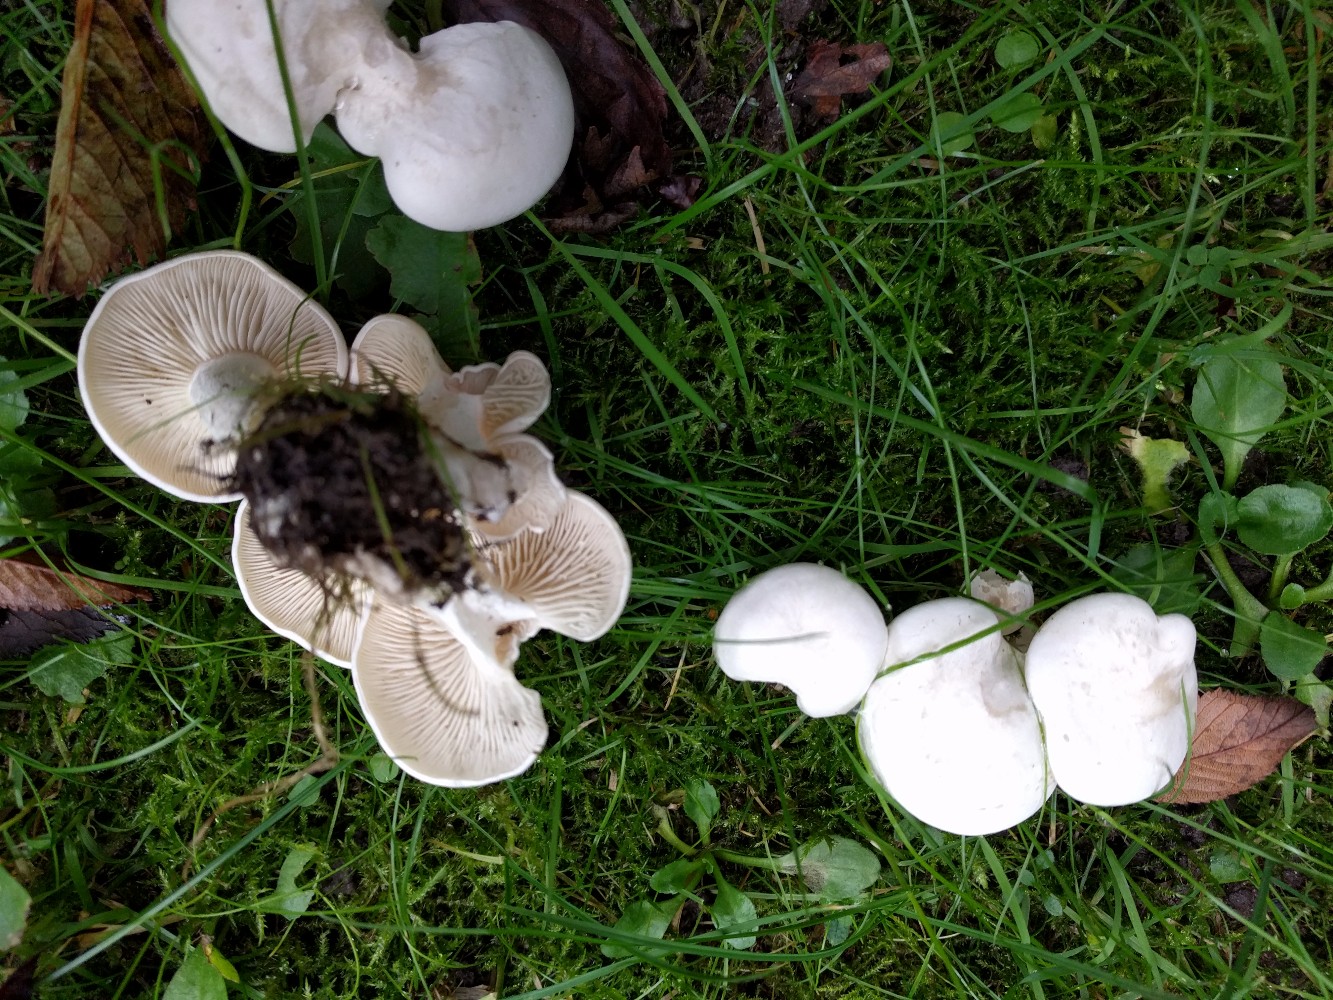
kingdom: Fungi
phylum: Basidiomycota
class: Agaricomycetes
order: Agaricales
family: Tricholomataceae
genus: Leucocybe
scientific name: Leucocybe connata
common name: knippe-tragthat
